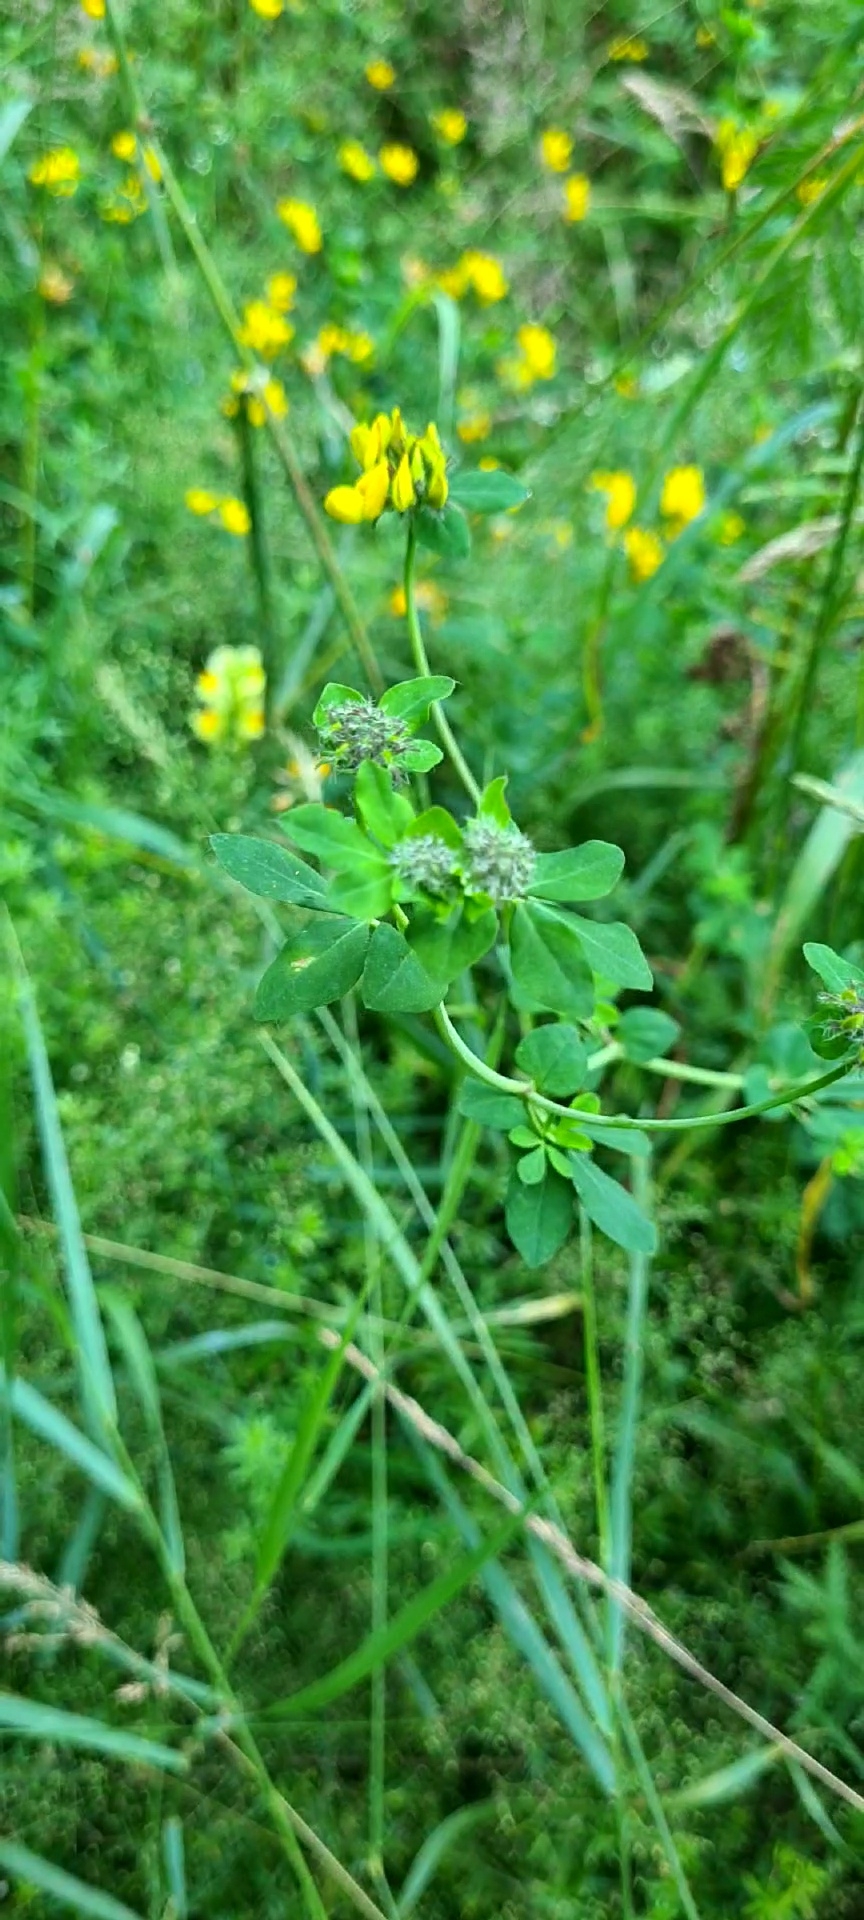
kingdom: Plantae
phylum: Tracheophyta
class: Magnoliopsida
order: Fabales
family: Fabaceae
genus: Lotus
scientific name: Lotus corniculatus
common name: Almindelig kællingetand
